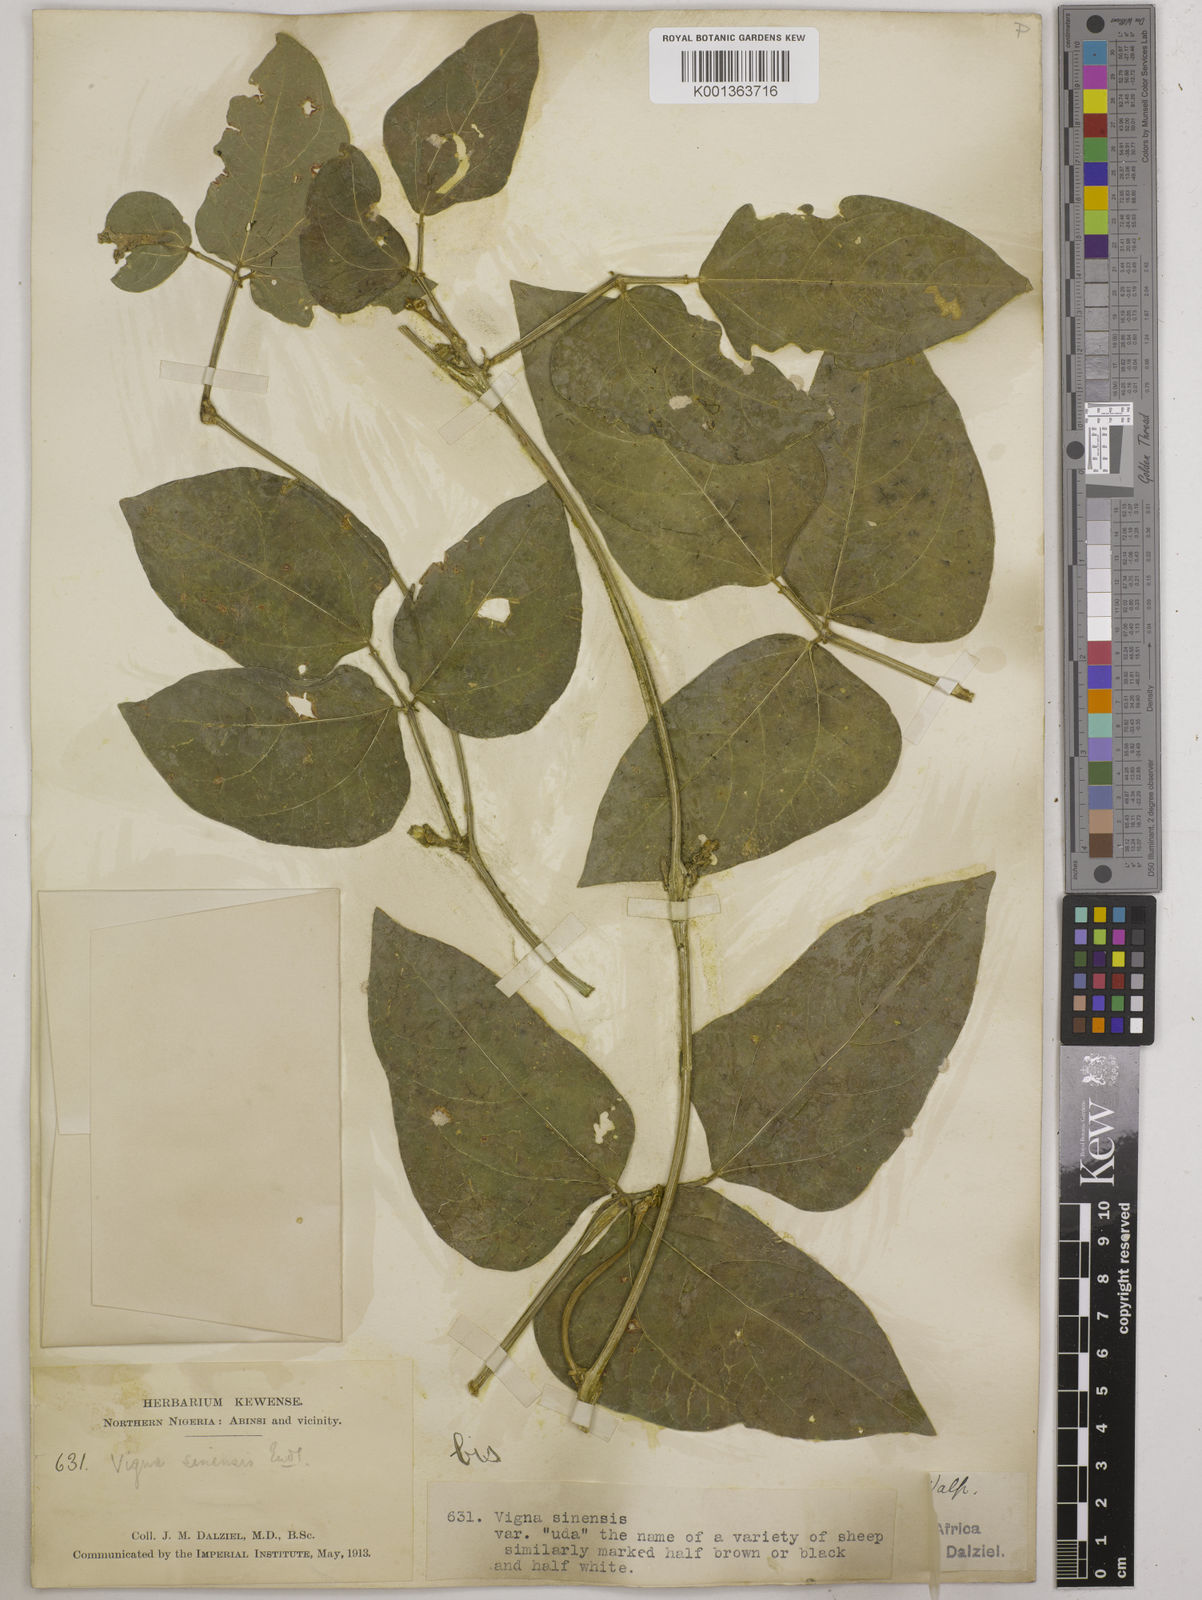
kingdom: Plantae
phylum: Tracheophyta
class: Magnoliopsida
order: Fabales
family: Fabaceae
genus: Vigna
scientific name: Vigna unguiculata
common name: Cowpea
